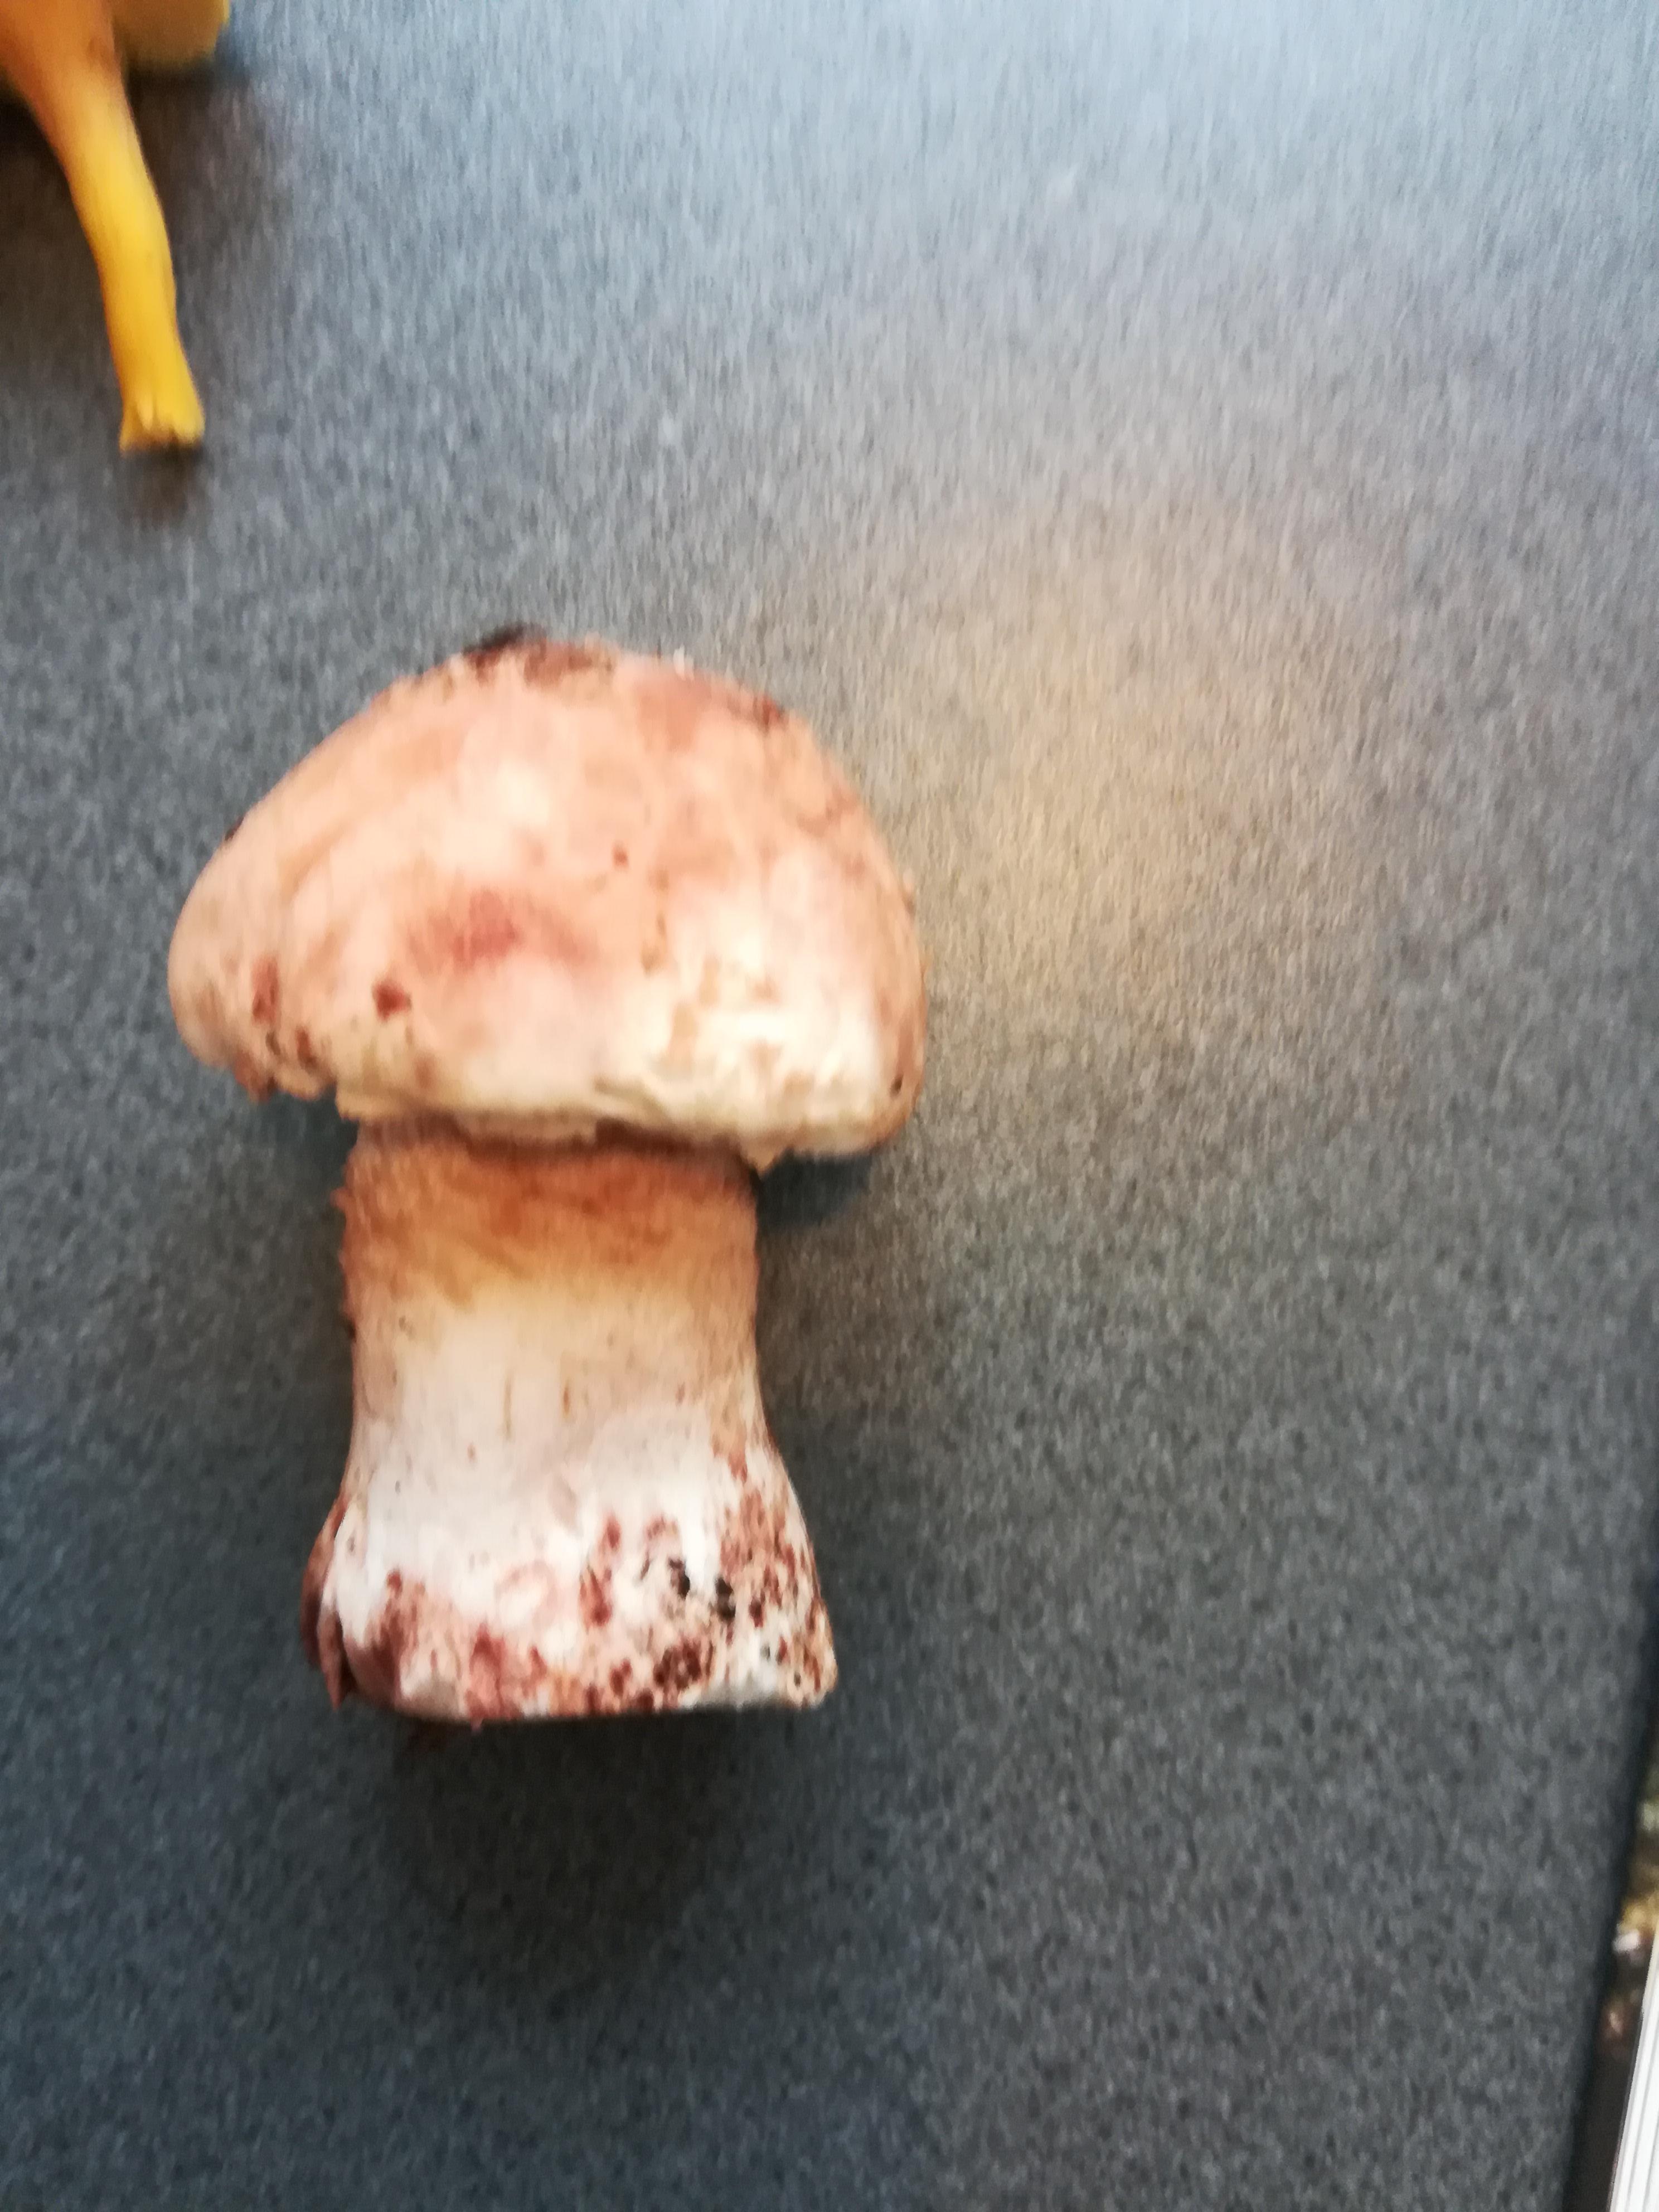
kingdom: Fungi
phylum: Basidiomycota
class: Agaricomycetes
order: Agaricales
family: Amanitaceae
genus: Amanita
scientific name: Amanita rubescens
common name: rødmende fluesvamp
